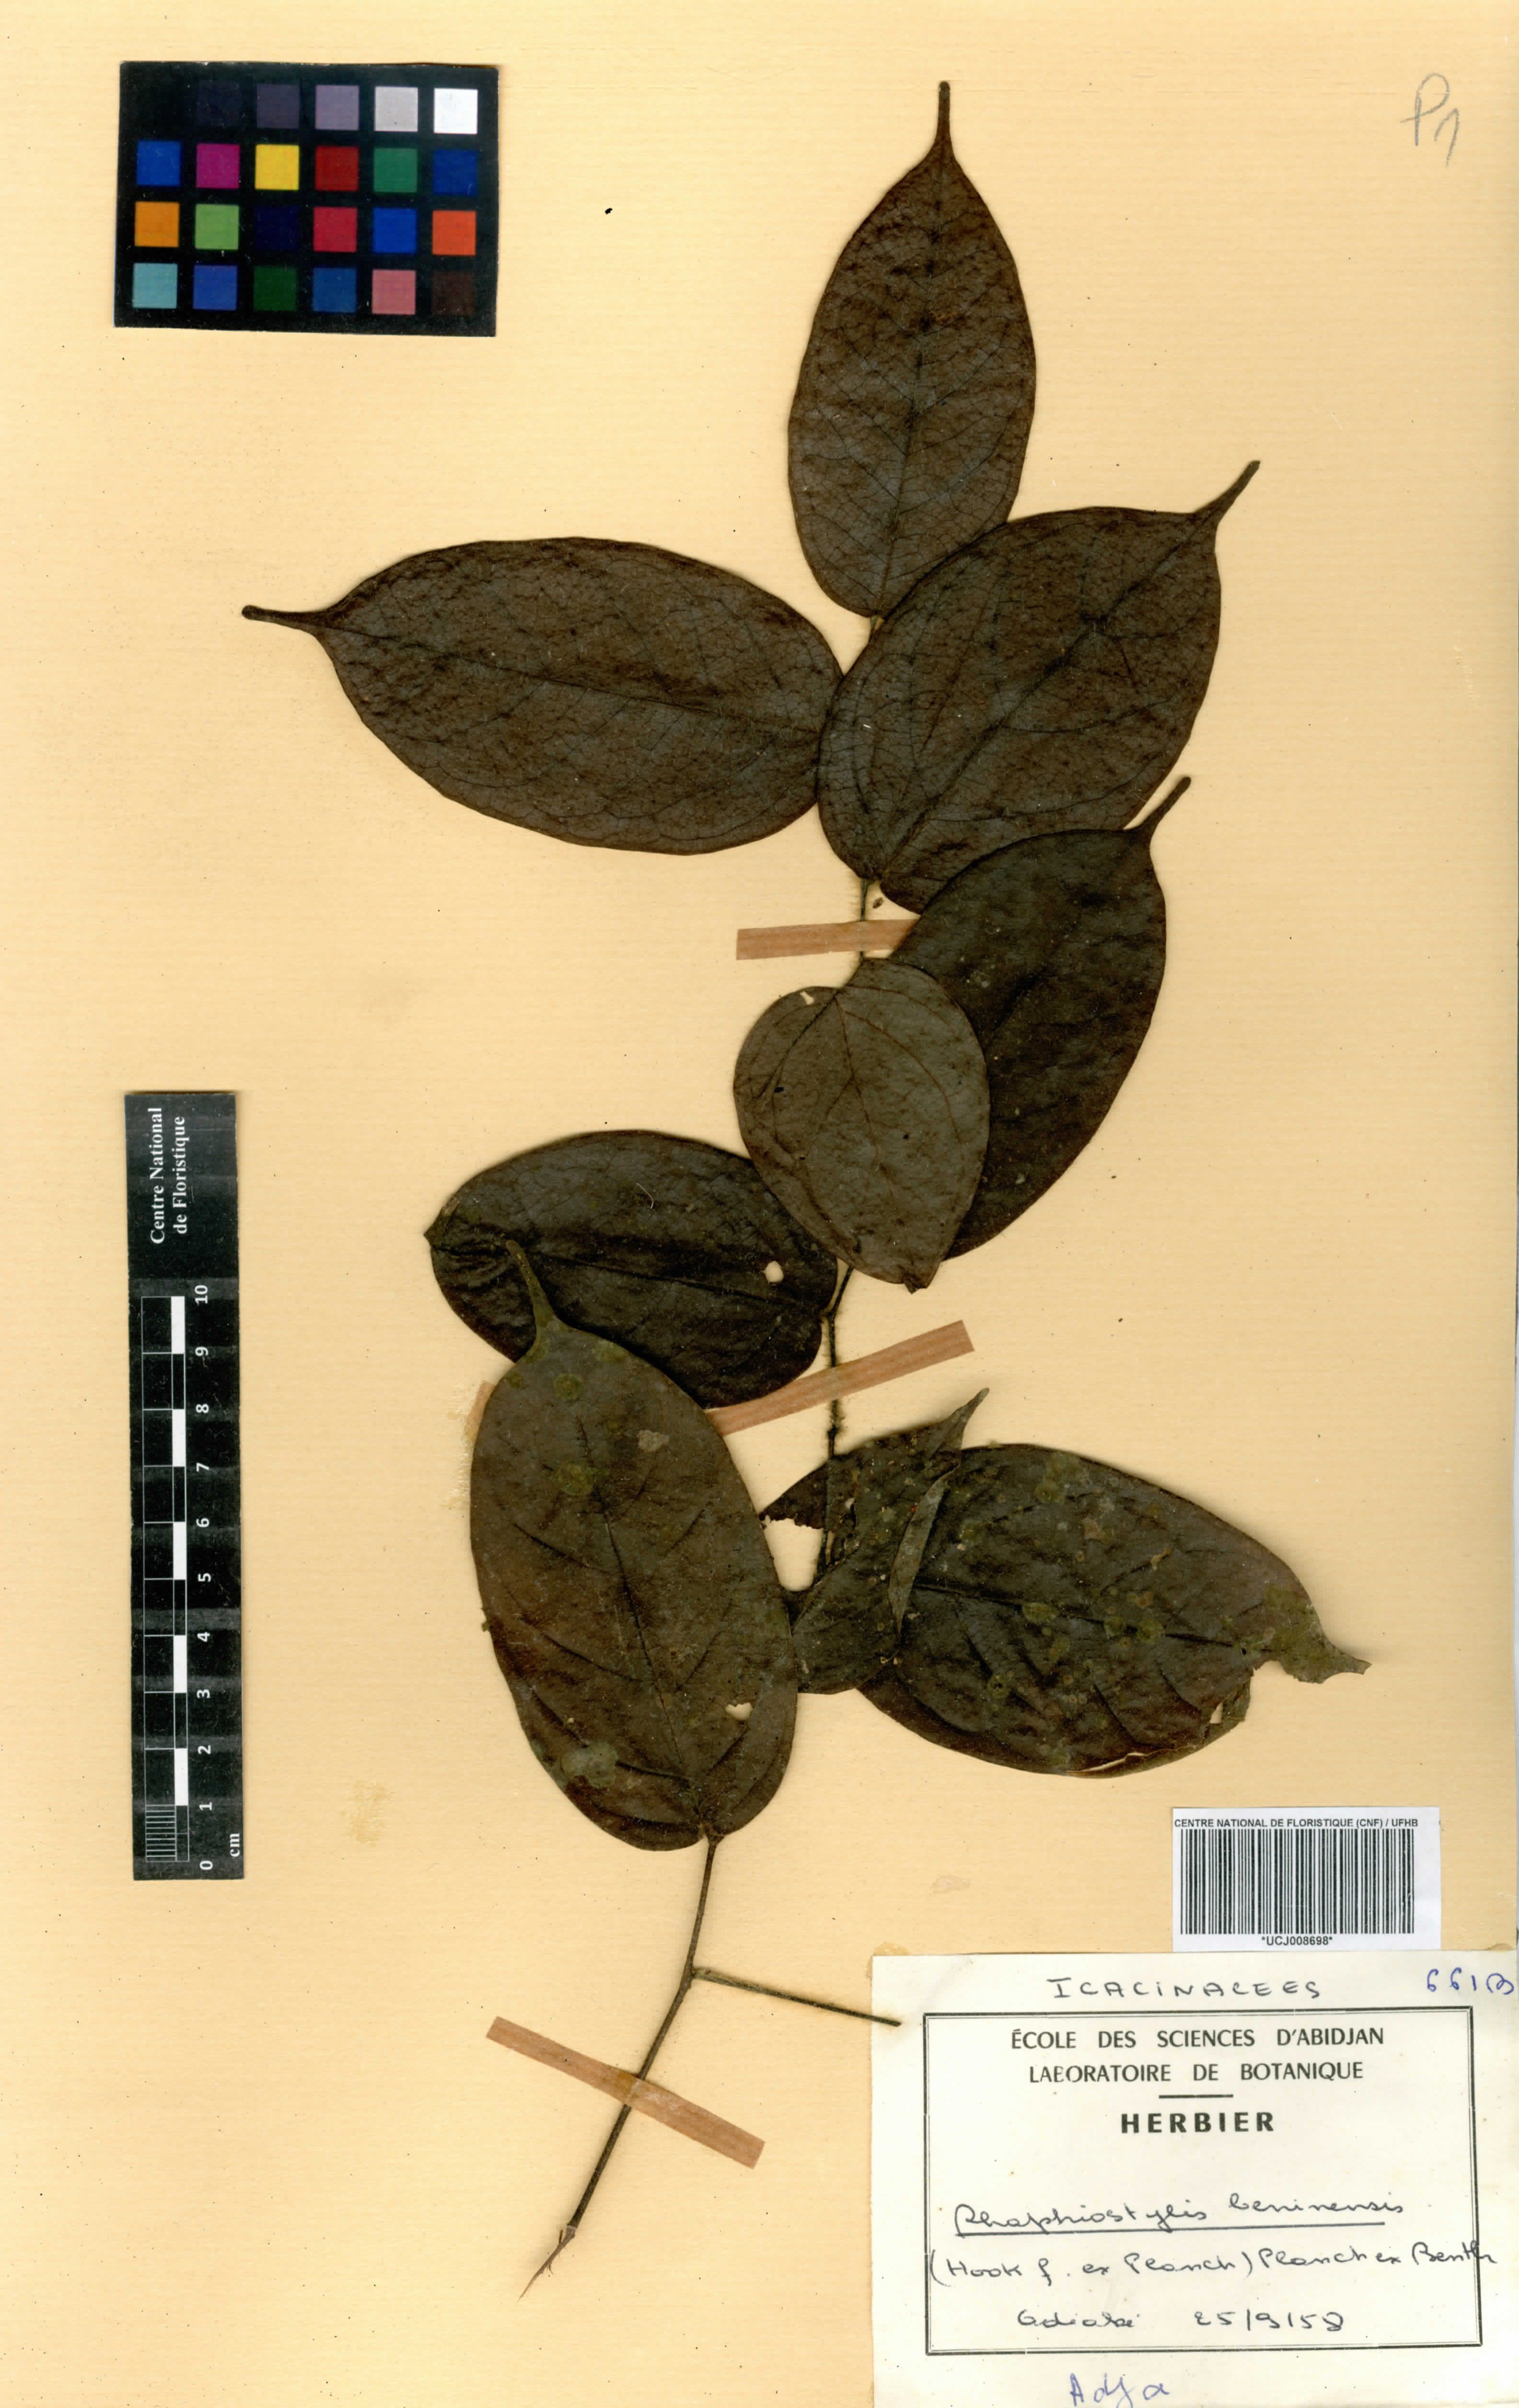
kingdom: Plantae
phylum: Tracheophyta
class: Magnoliopsida
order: Metteniusales
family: Metteniusaceae
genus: Rhaphiostylis
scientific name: Rhaphiostylis beninensis
